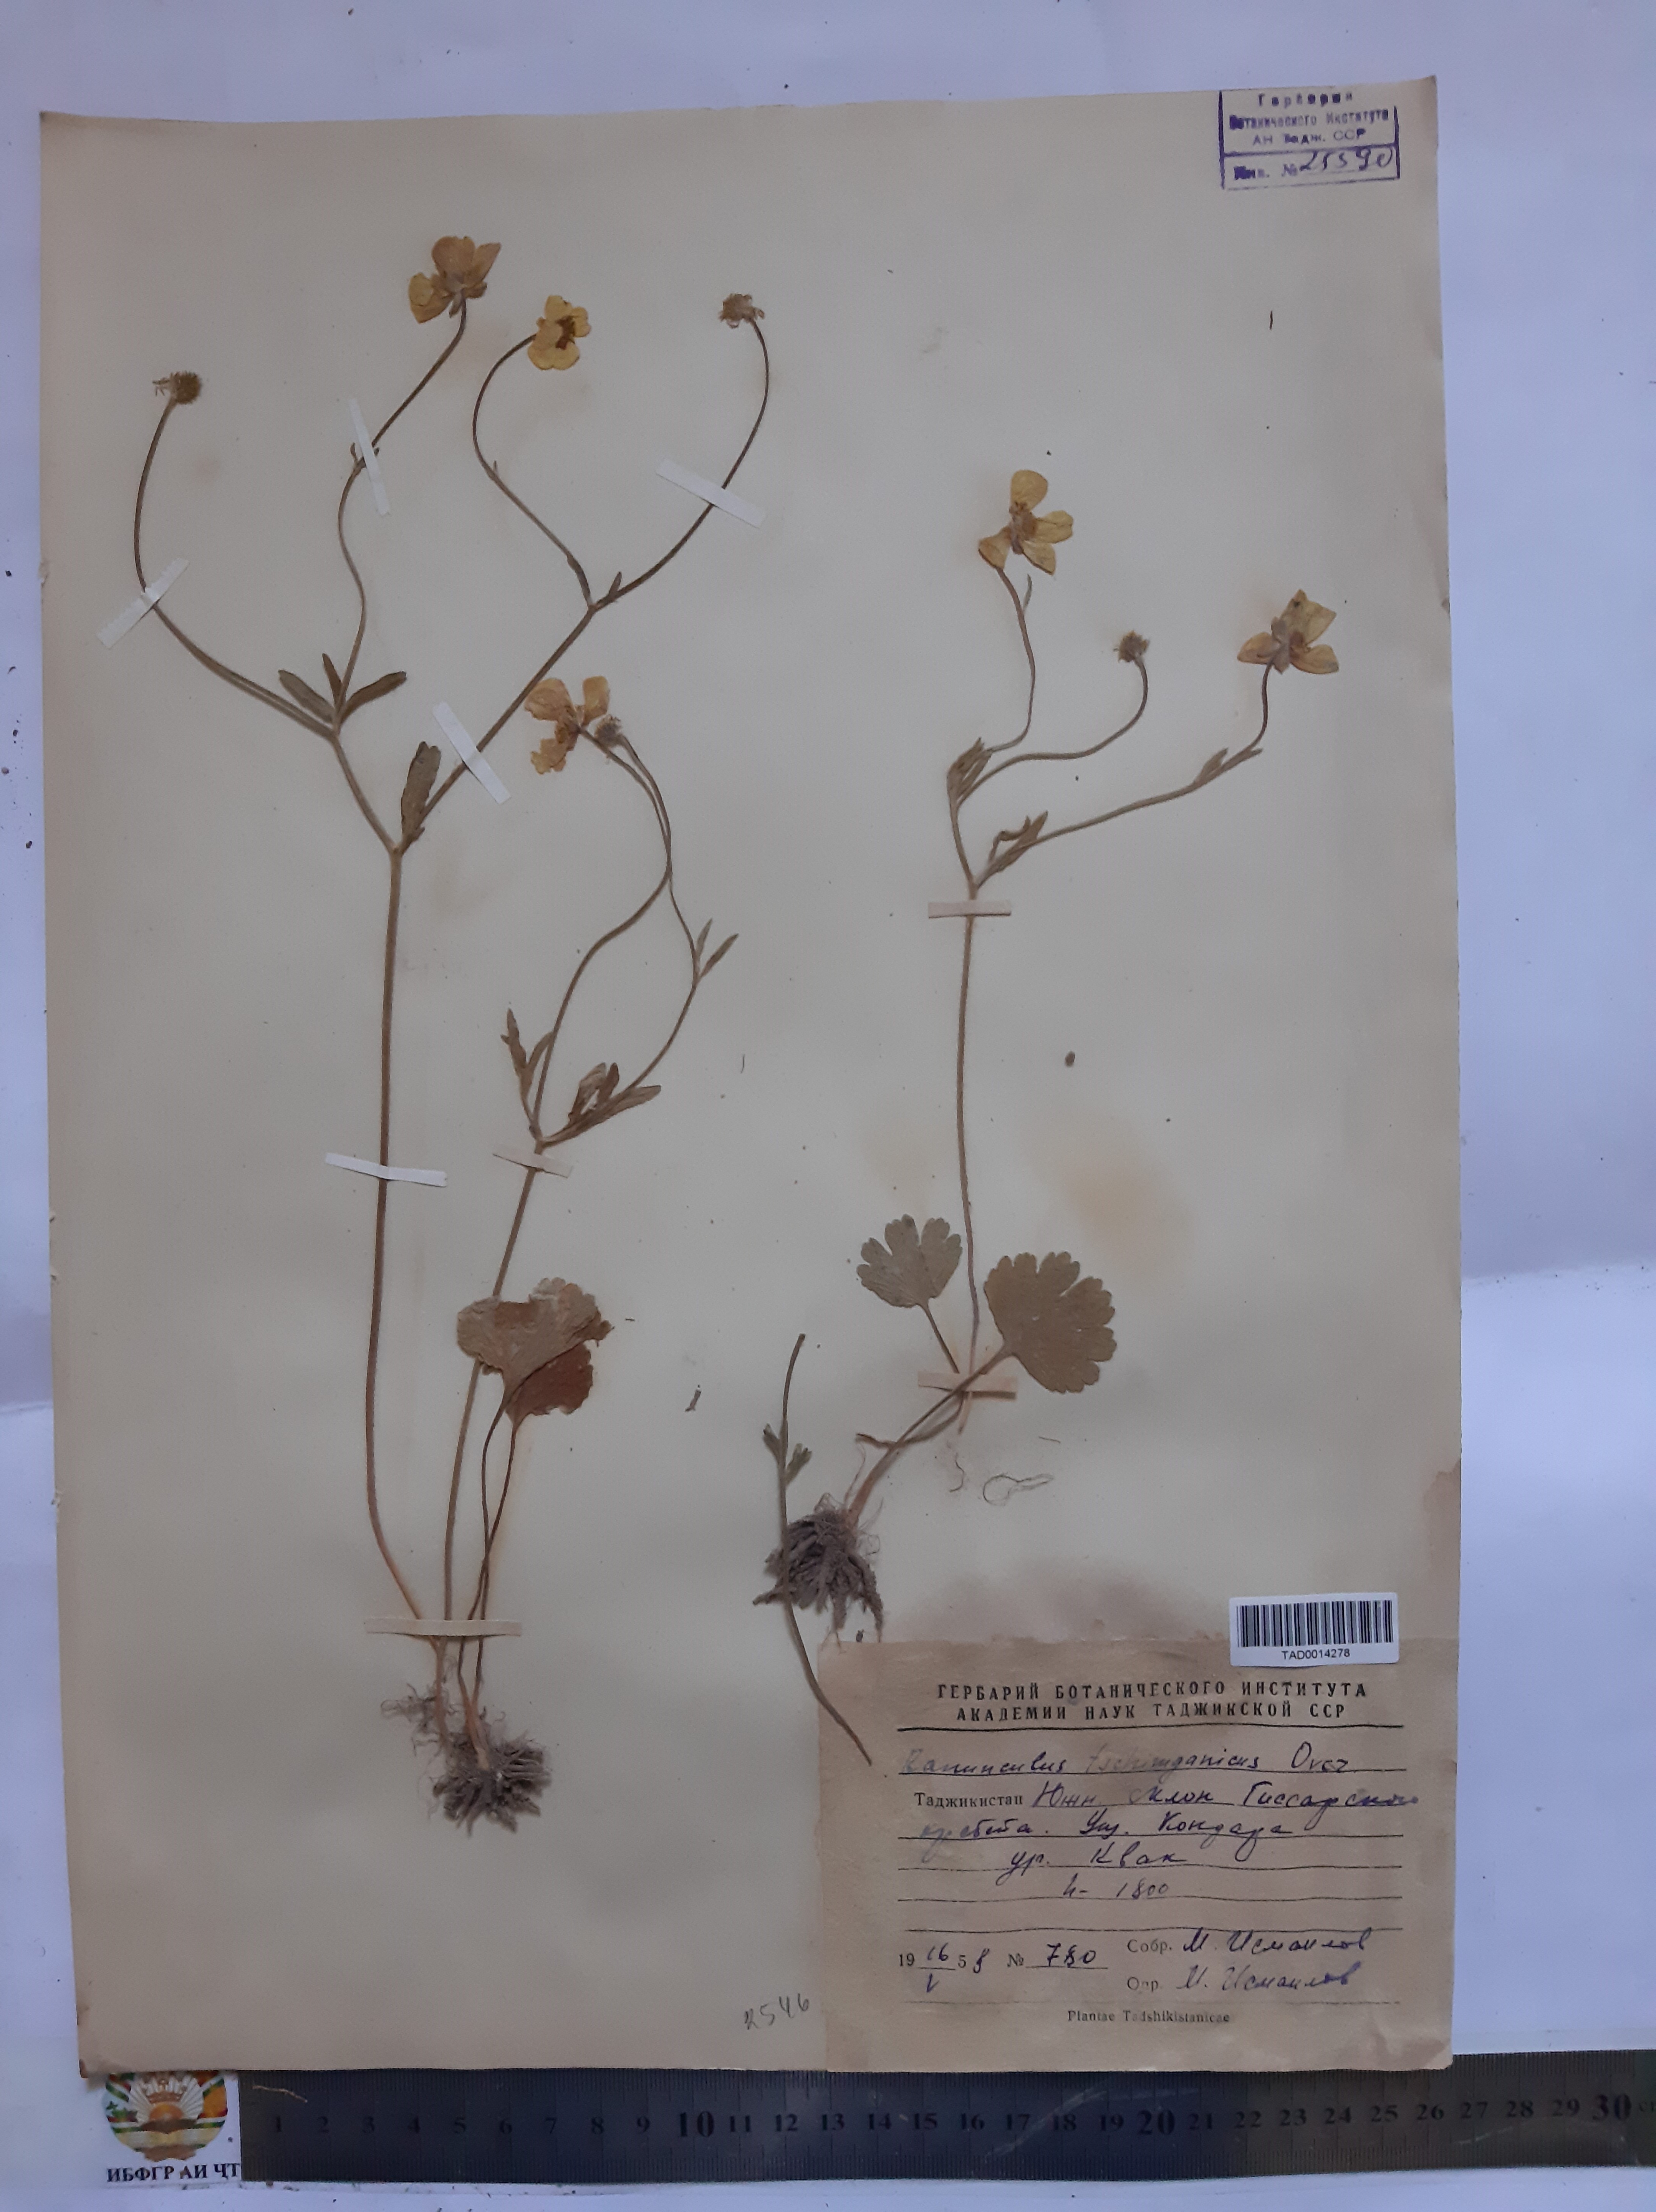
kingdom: Plantae
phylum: Tracheophyta
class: Magnoliopsida
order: Ranunculales
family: Ranunculaceae
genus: Ranunculus
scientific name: Ranunculus songaricus
